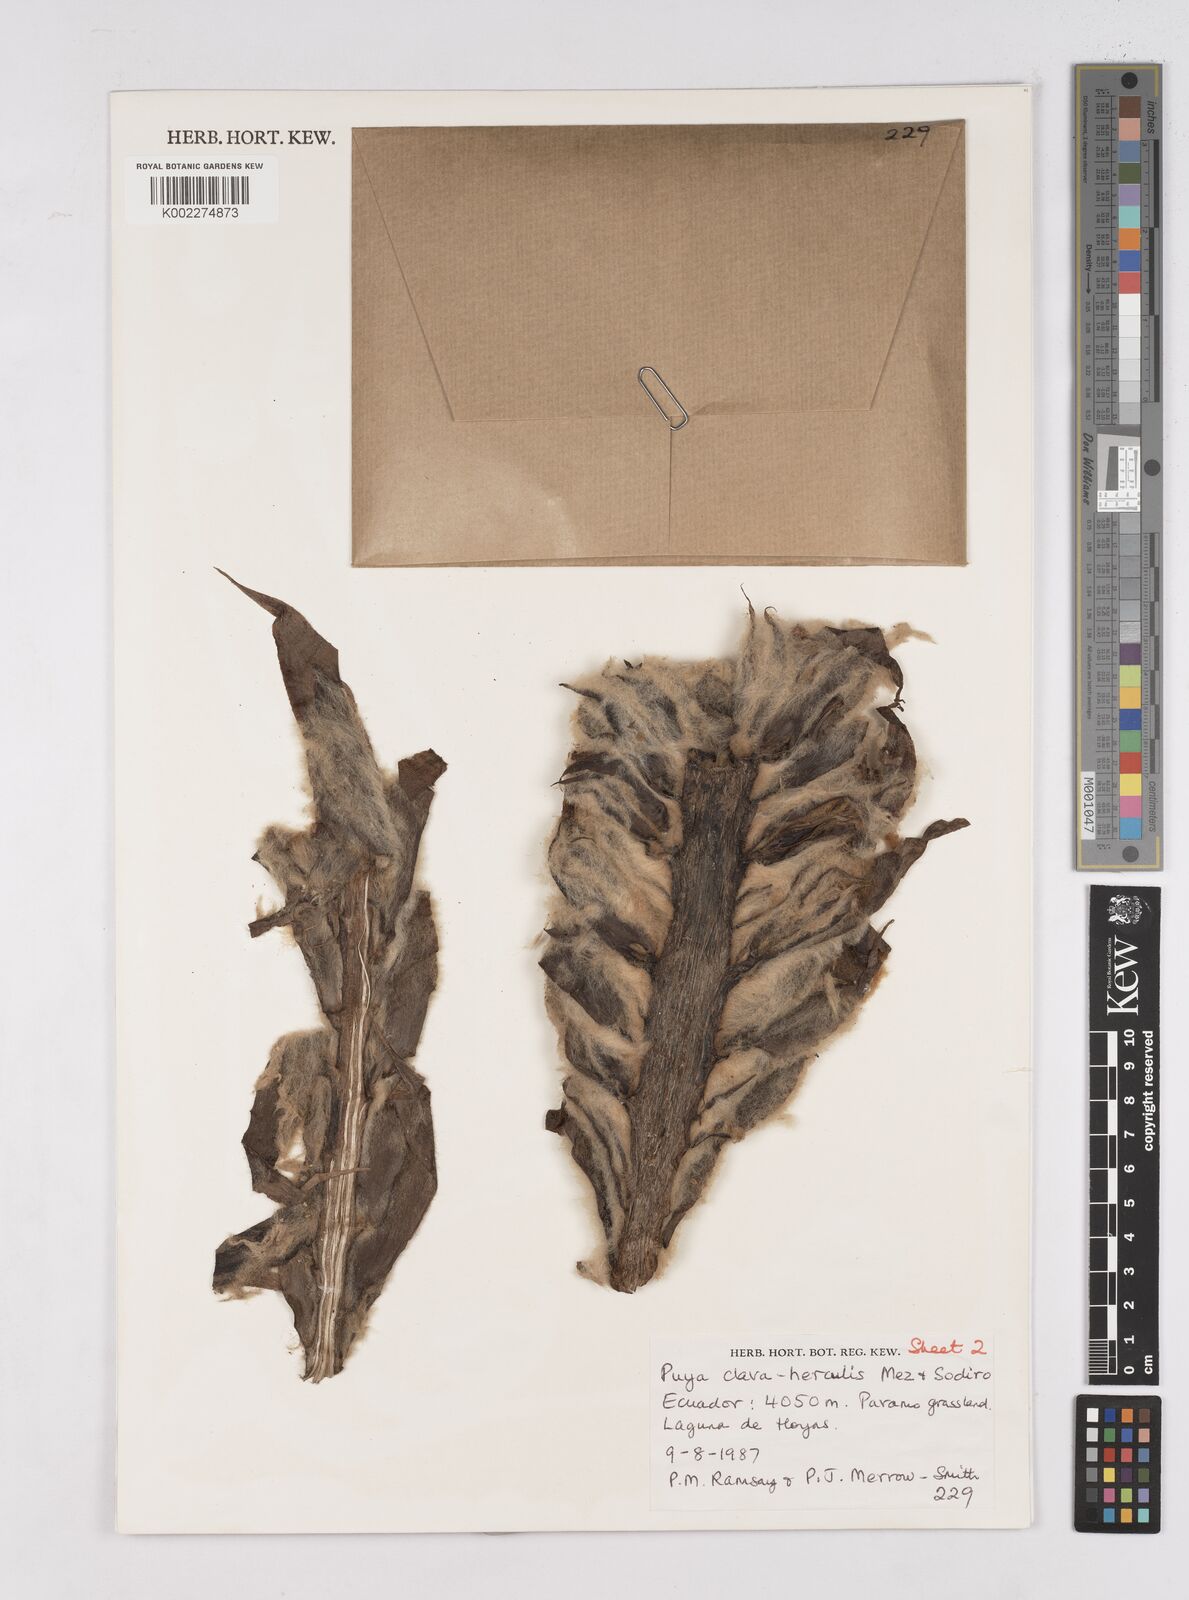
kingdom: Plantae
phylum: Tracheophyta
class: Liliopsida
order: Poales
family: Bromeliaceae
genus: Puya
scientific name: Puya clava-herculis
